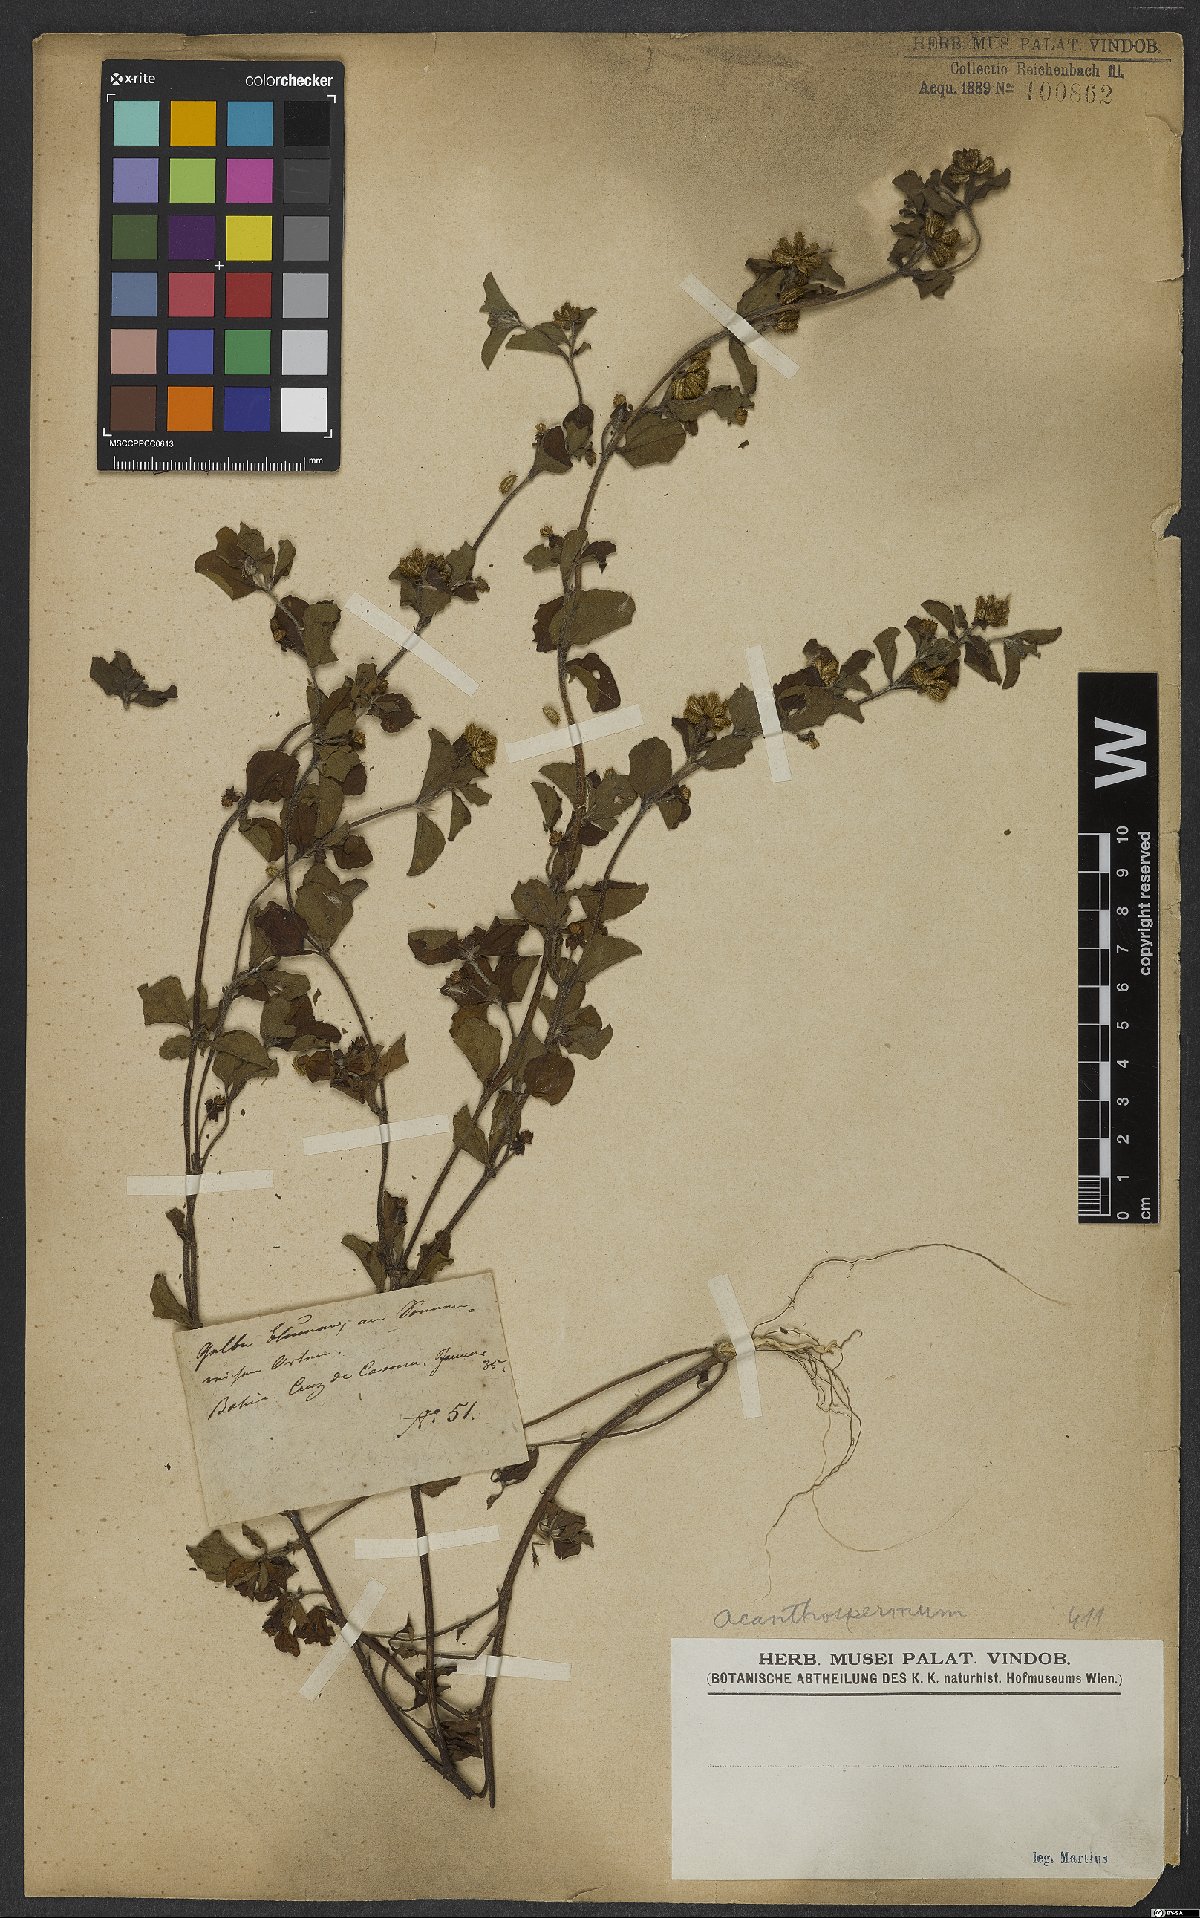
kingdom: Plantae
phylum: Tracheophyta
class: Magnoliopsida
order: Asterales
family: Asteraceae
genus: Acanthospermum
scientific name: Acanthospermum hispidum
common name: Hispid starbur
